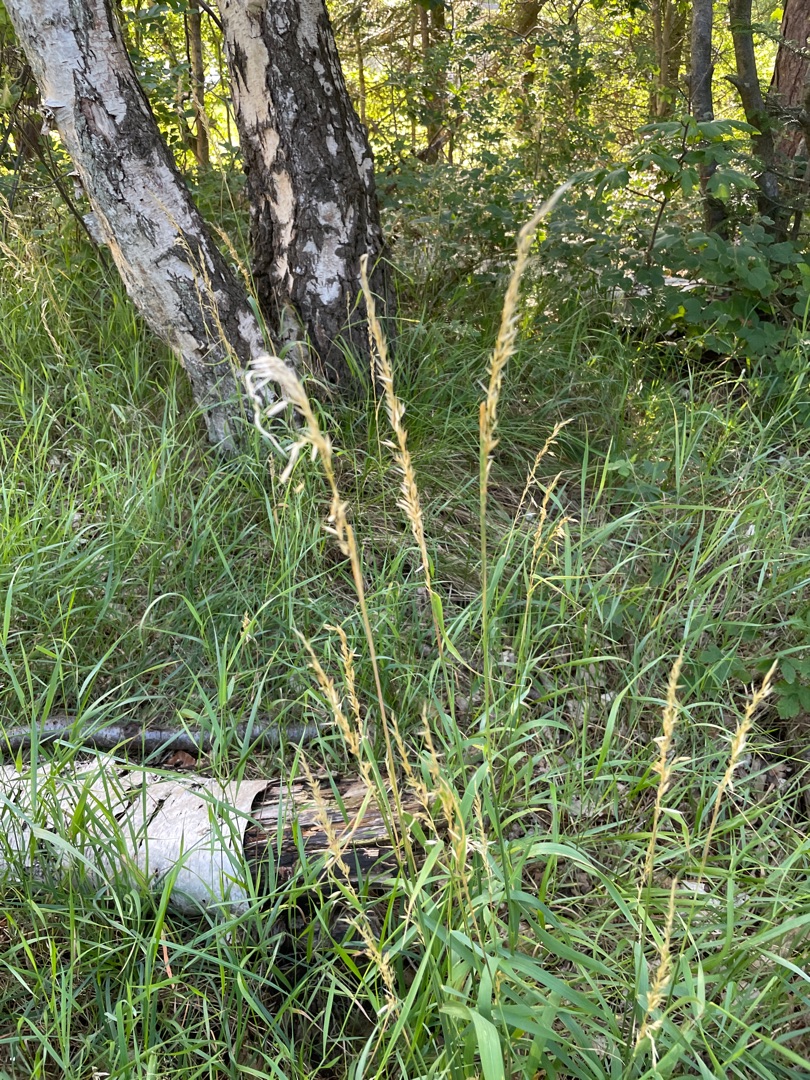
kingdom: Plantae
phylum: Tracheophyta
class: Liliopsida
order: Poales
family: Poaceae
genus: Arrhenatherum
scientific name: Arrhenatherum elatius
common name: Draphavre
